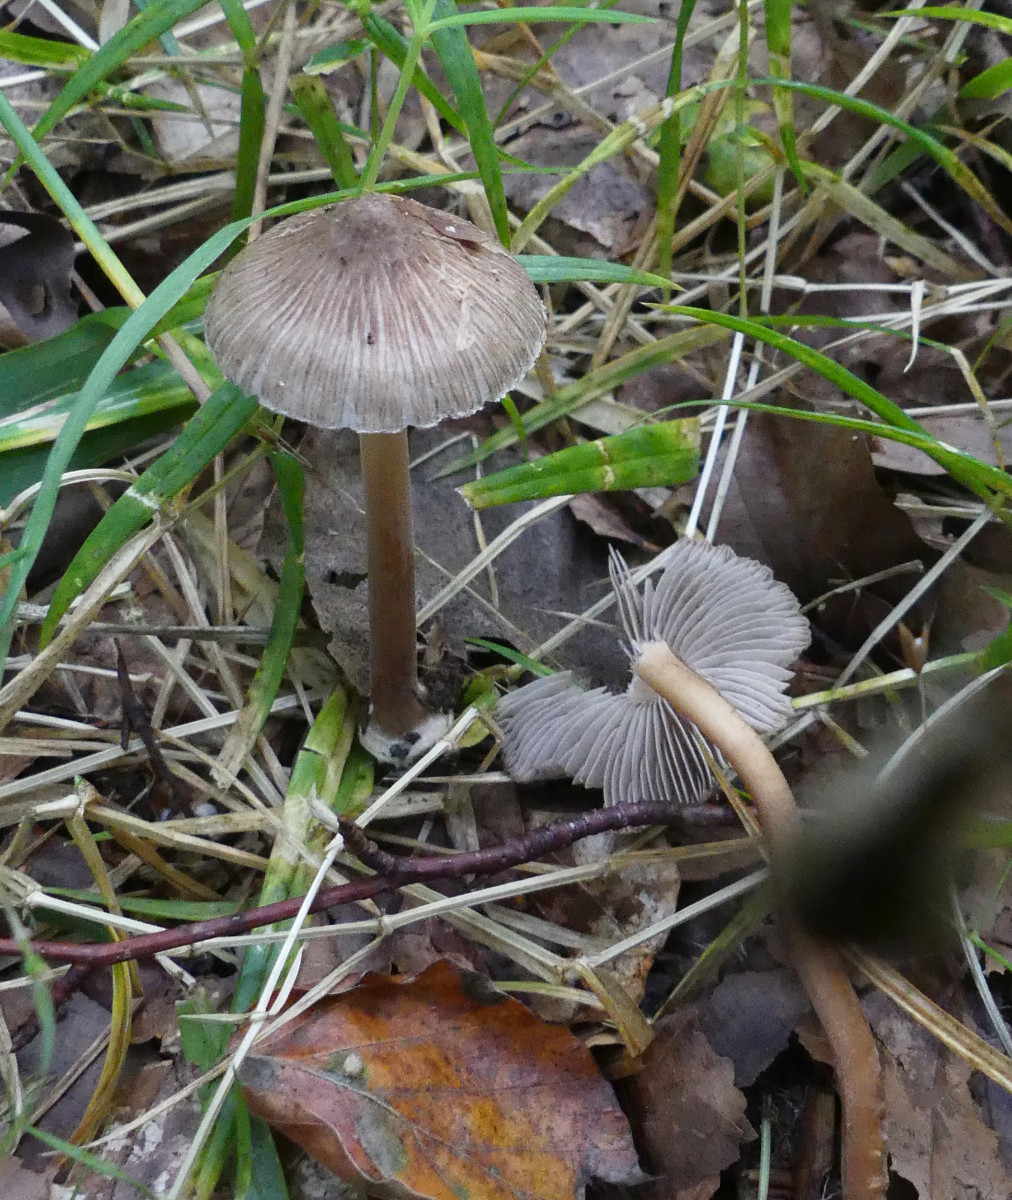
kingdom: Fungi
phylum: Basidiomycota
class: Agaricomycetes
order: Agaricales
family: Inocybaceae
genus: Inocybe
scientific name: Inocybe asterospora
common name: stjernesporet trævlhat
